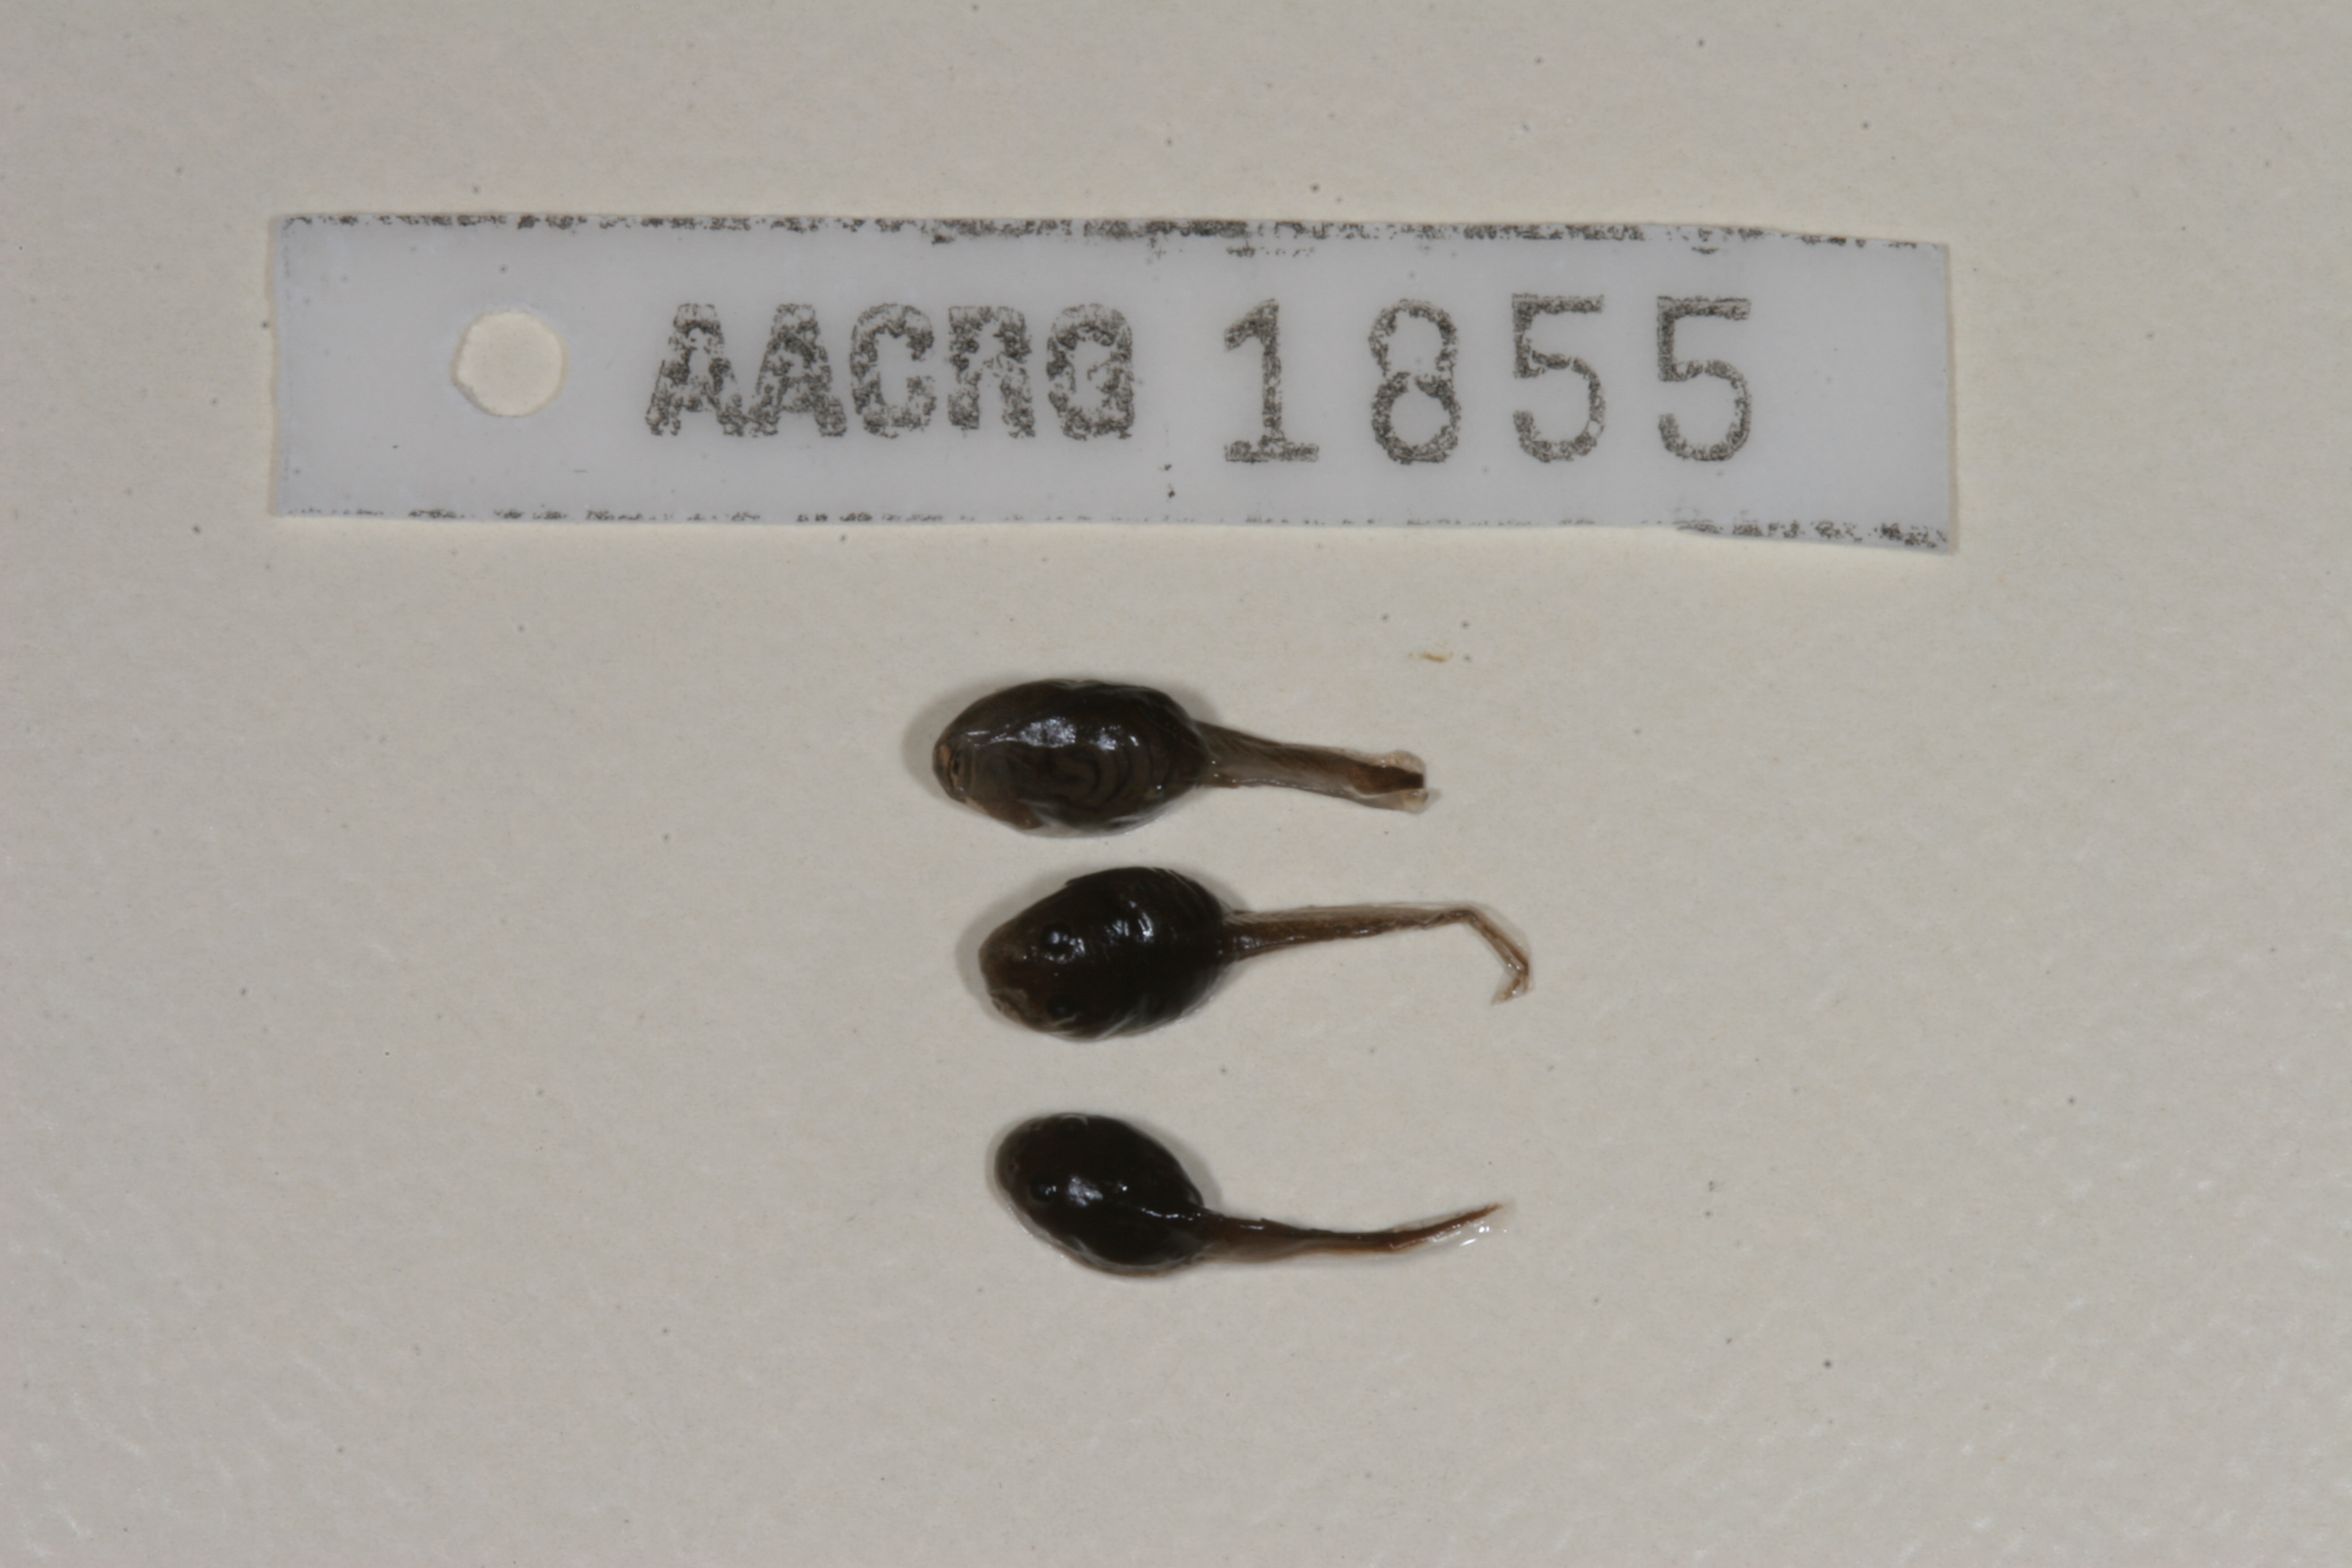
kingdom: Animalia
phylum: Chordata
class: Amphibia
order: Anura
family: Bufonidae
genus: Sclerophrys
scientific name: Sclerophrys gutturalis
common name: African common toad
